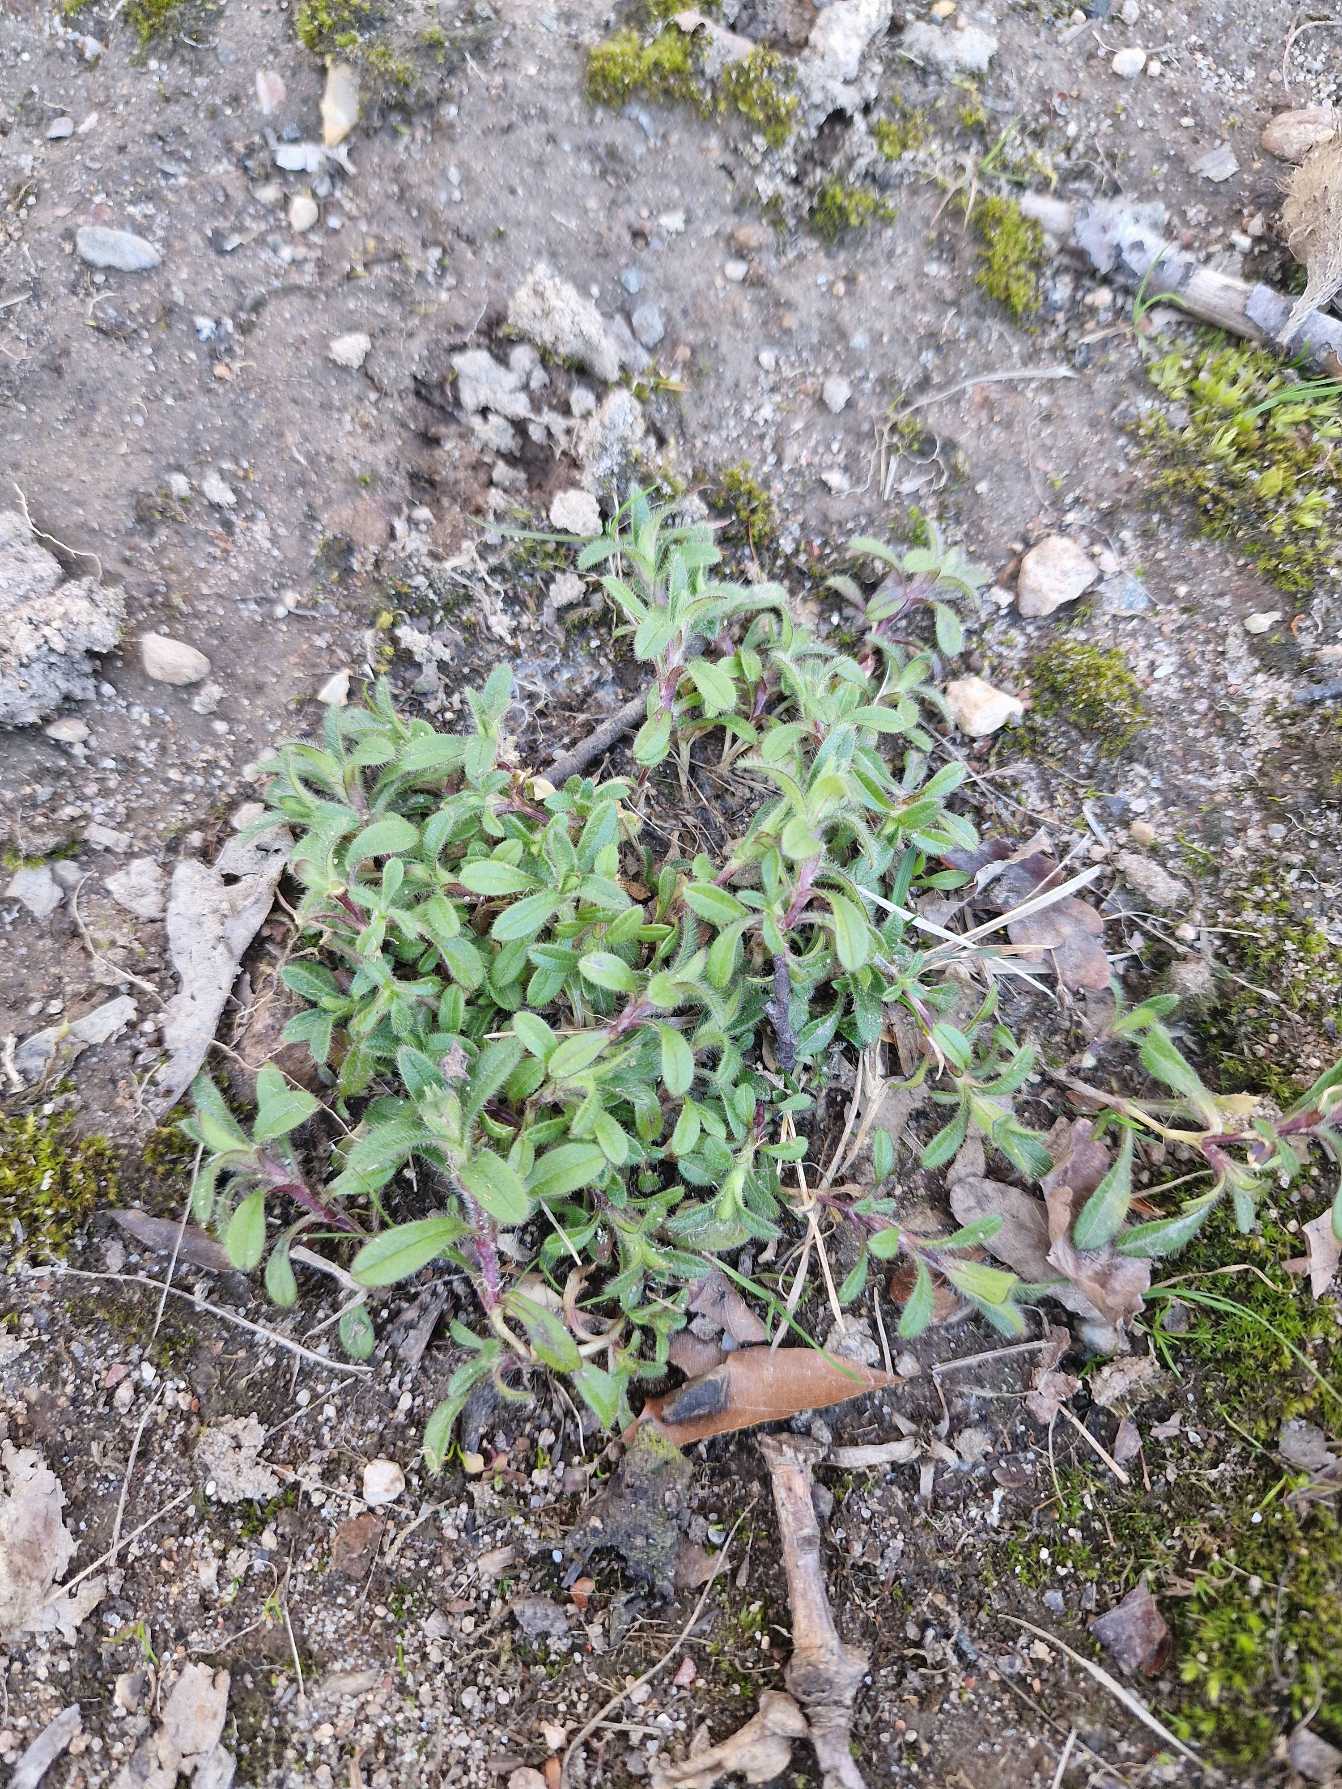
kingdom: Plantae
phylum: Tracheophyta
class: Magnoliopsida
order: Caryophyllales
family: Caryophyllaceae
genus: Cerastium
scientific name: Cerastium fontanum
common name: Almindelig hønsetarm
